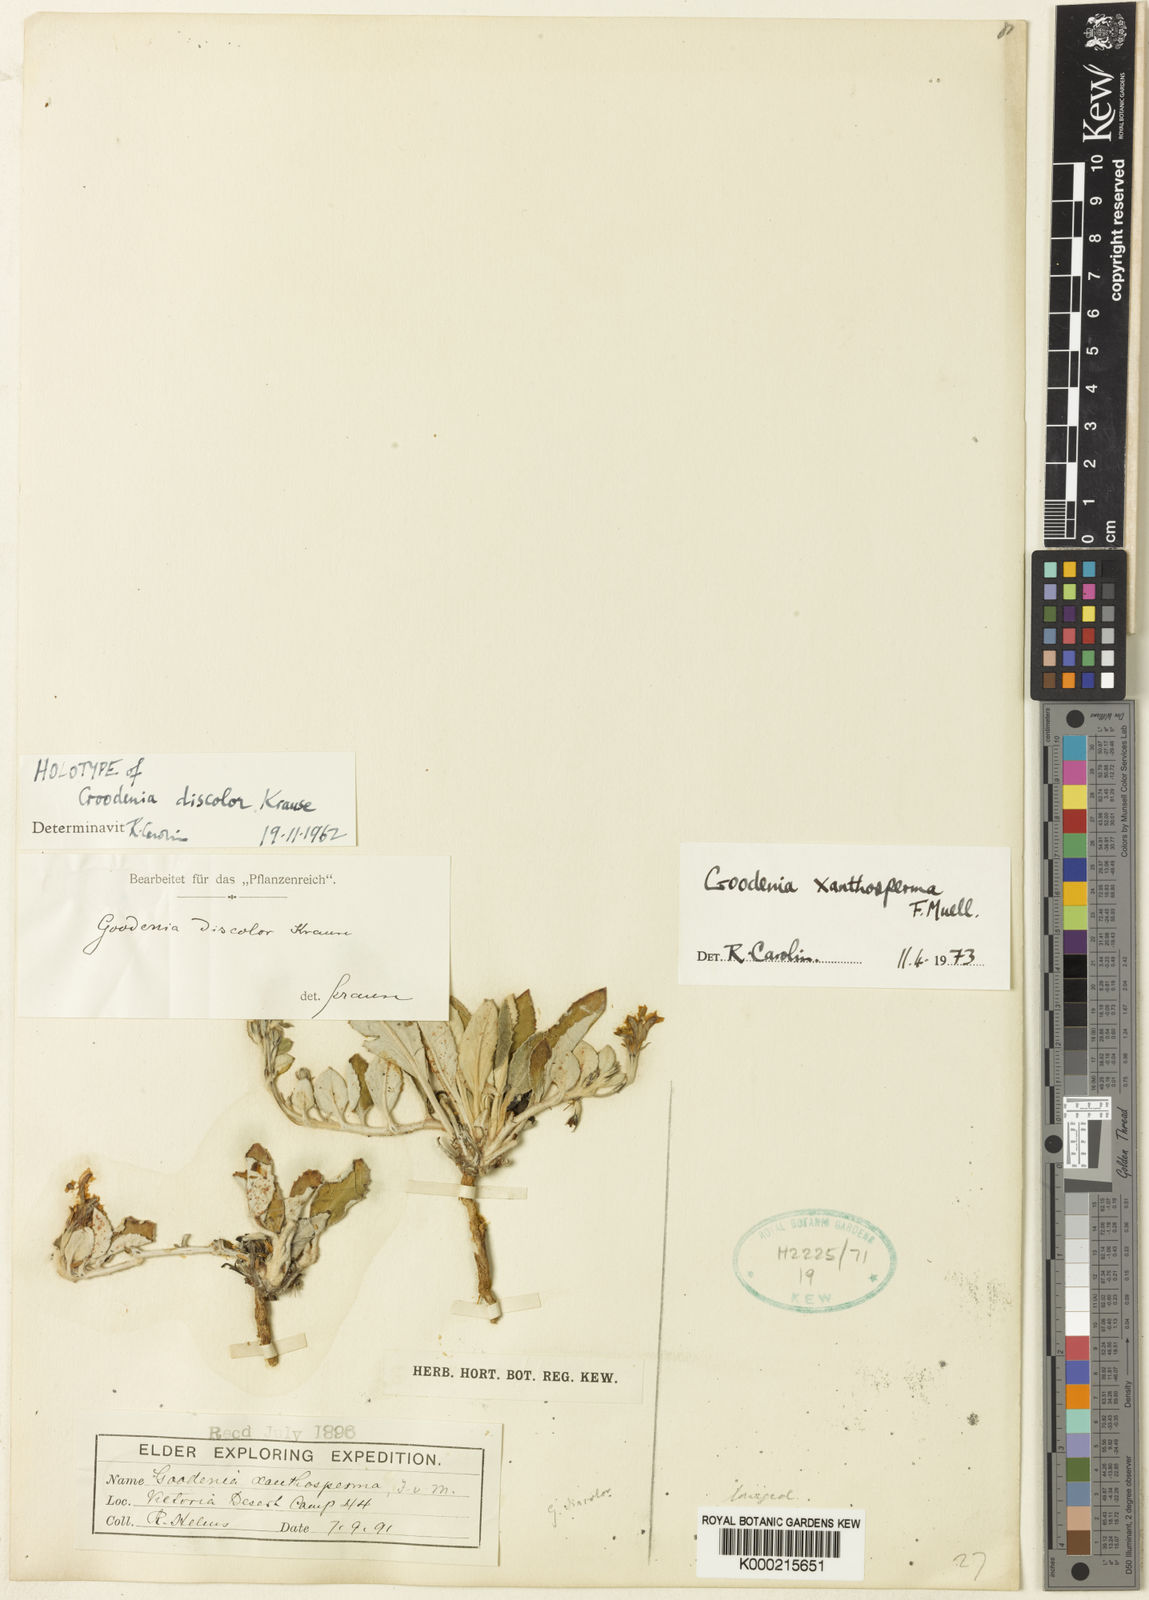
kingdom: Plantae
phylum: Tracheophyta
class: Magnoliopsida
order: Asterales
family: Goodeniaceae
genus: Goodenia
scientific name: Goodenia xanthosperma
